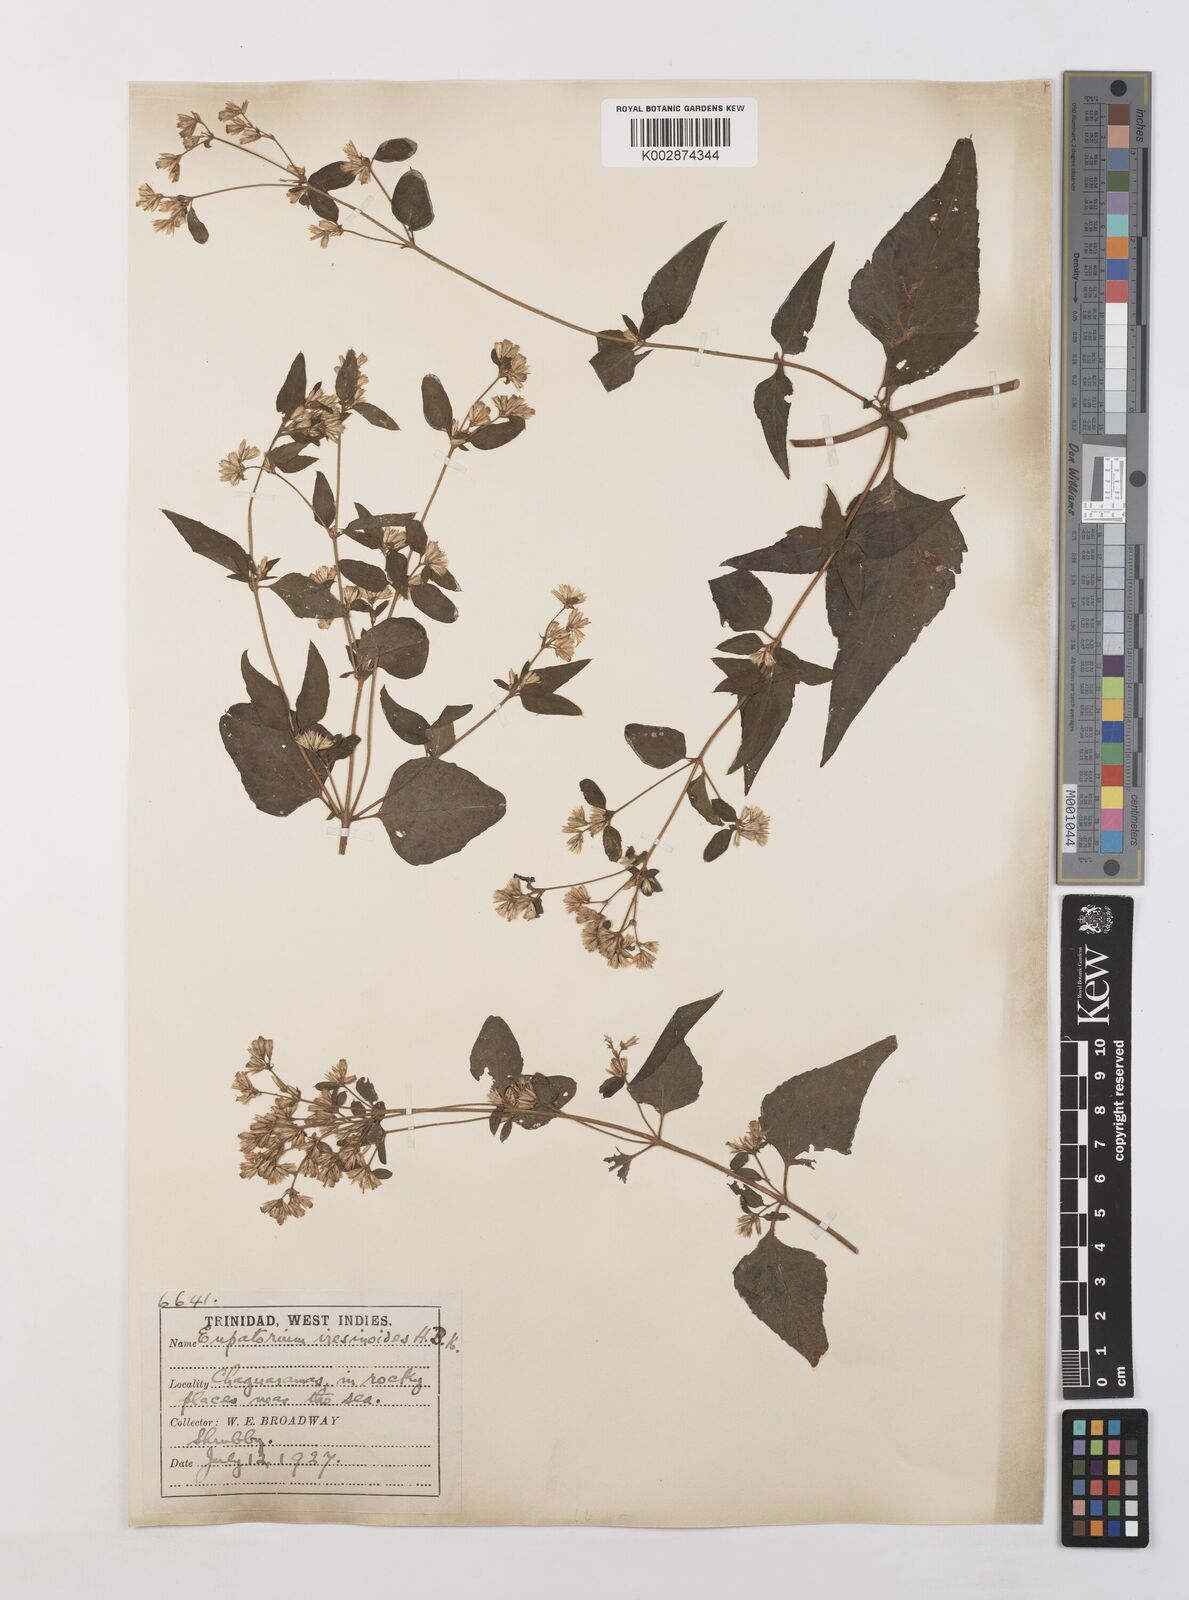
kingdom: Plantae
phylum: Tracheophyta
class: Magnoliopsida
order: Asterales
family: Asteraceae
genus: Condylidium
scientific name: Condylidium iresinoides
